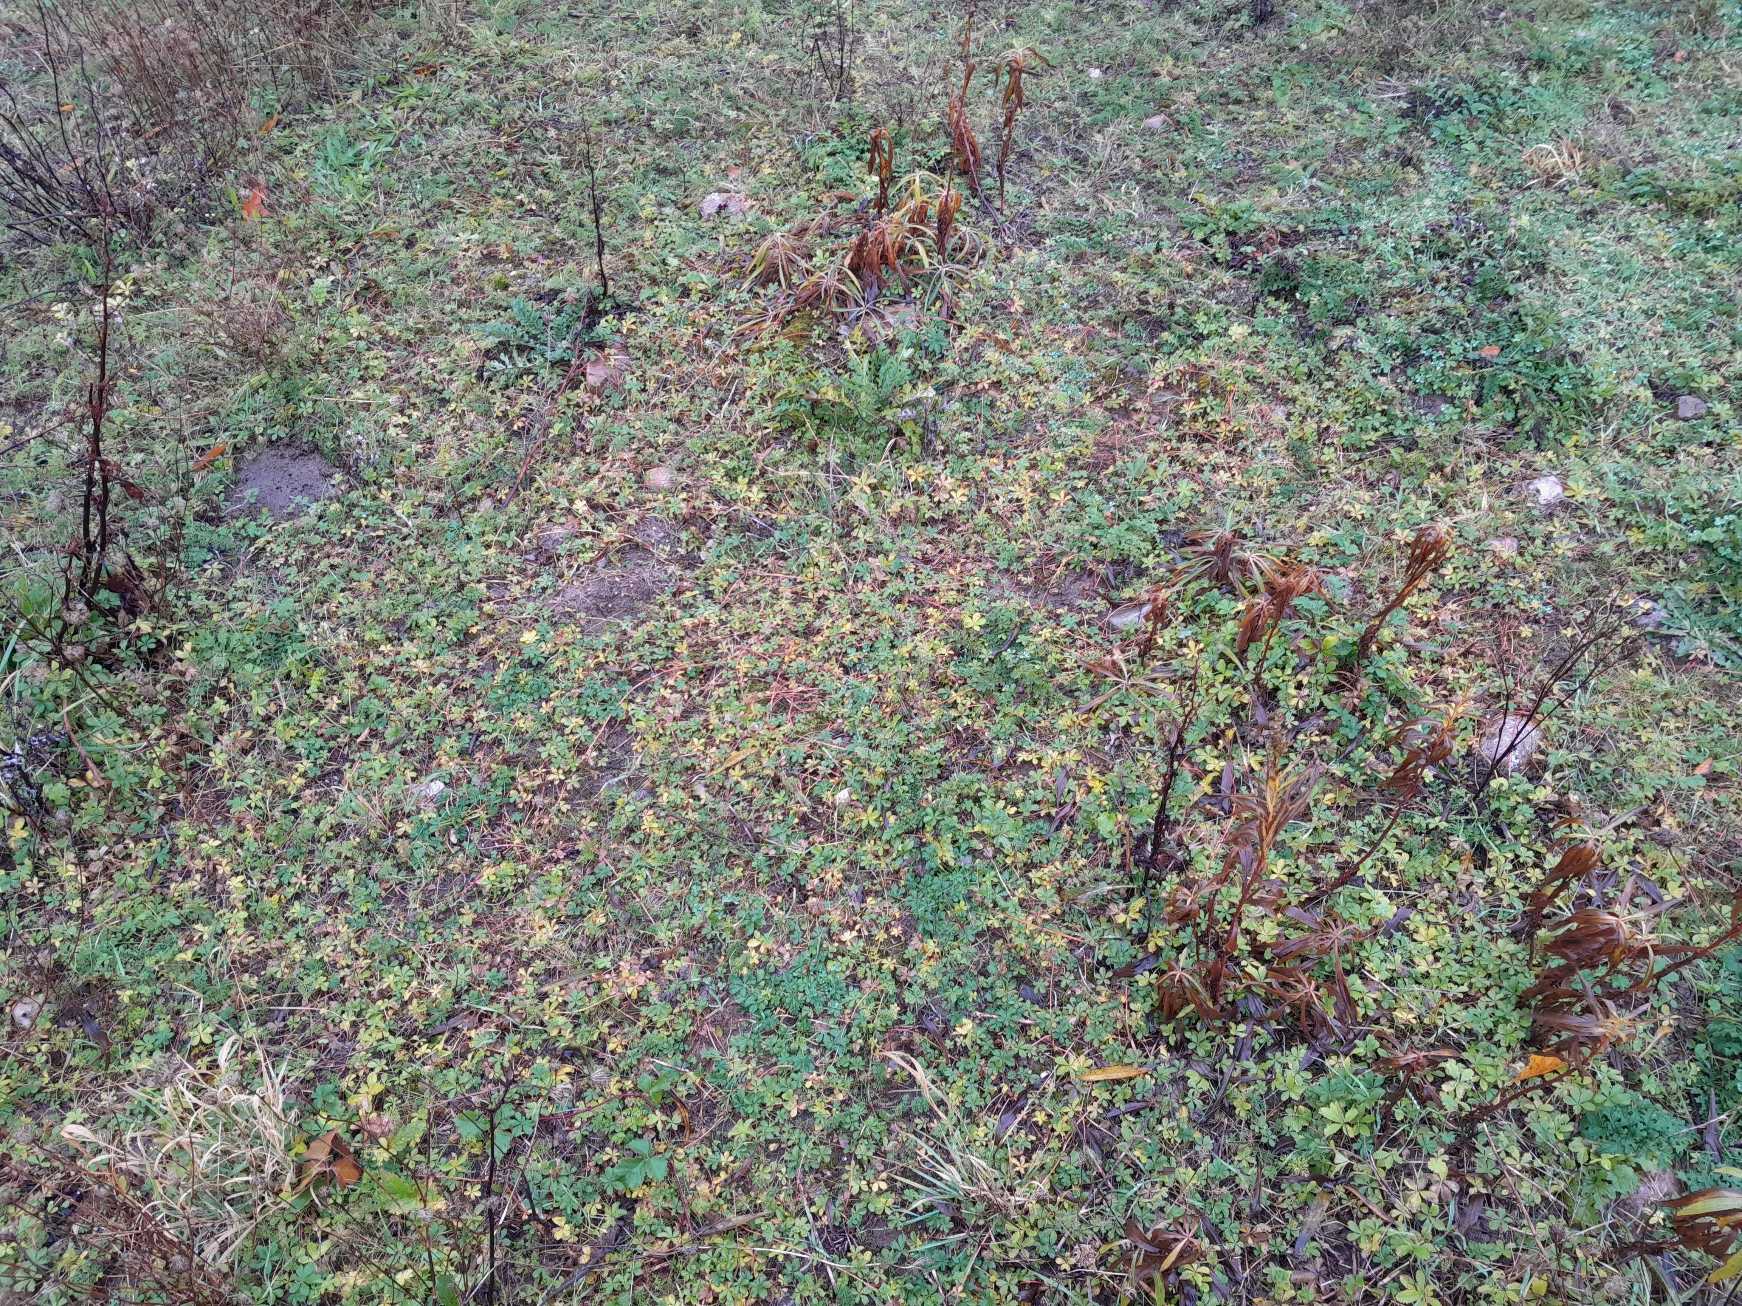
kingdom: Plantae
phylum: Tracheophyta
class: Magnoliopsida
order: Rosales
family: Rosaceae
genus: Potentilla
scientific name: Potentilla reptans
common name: Krybende potentil
